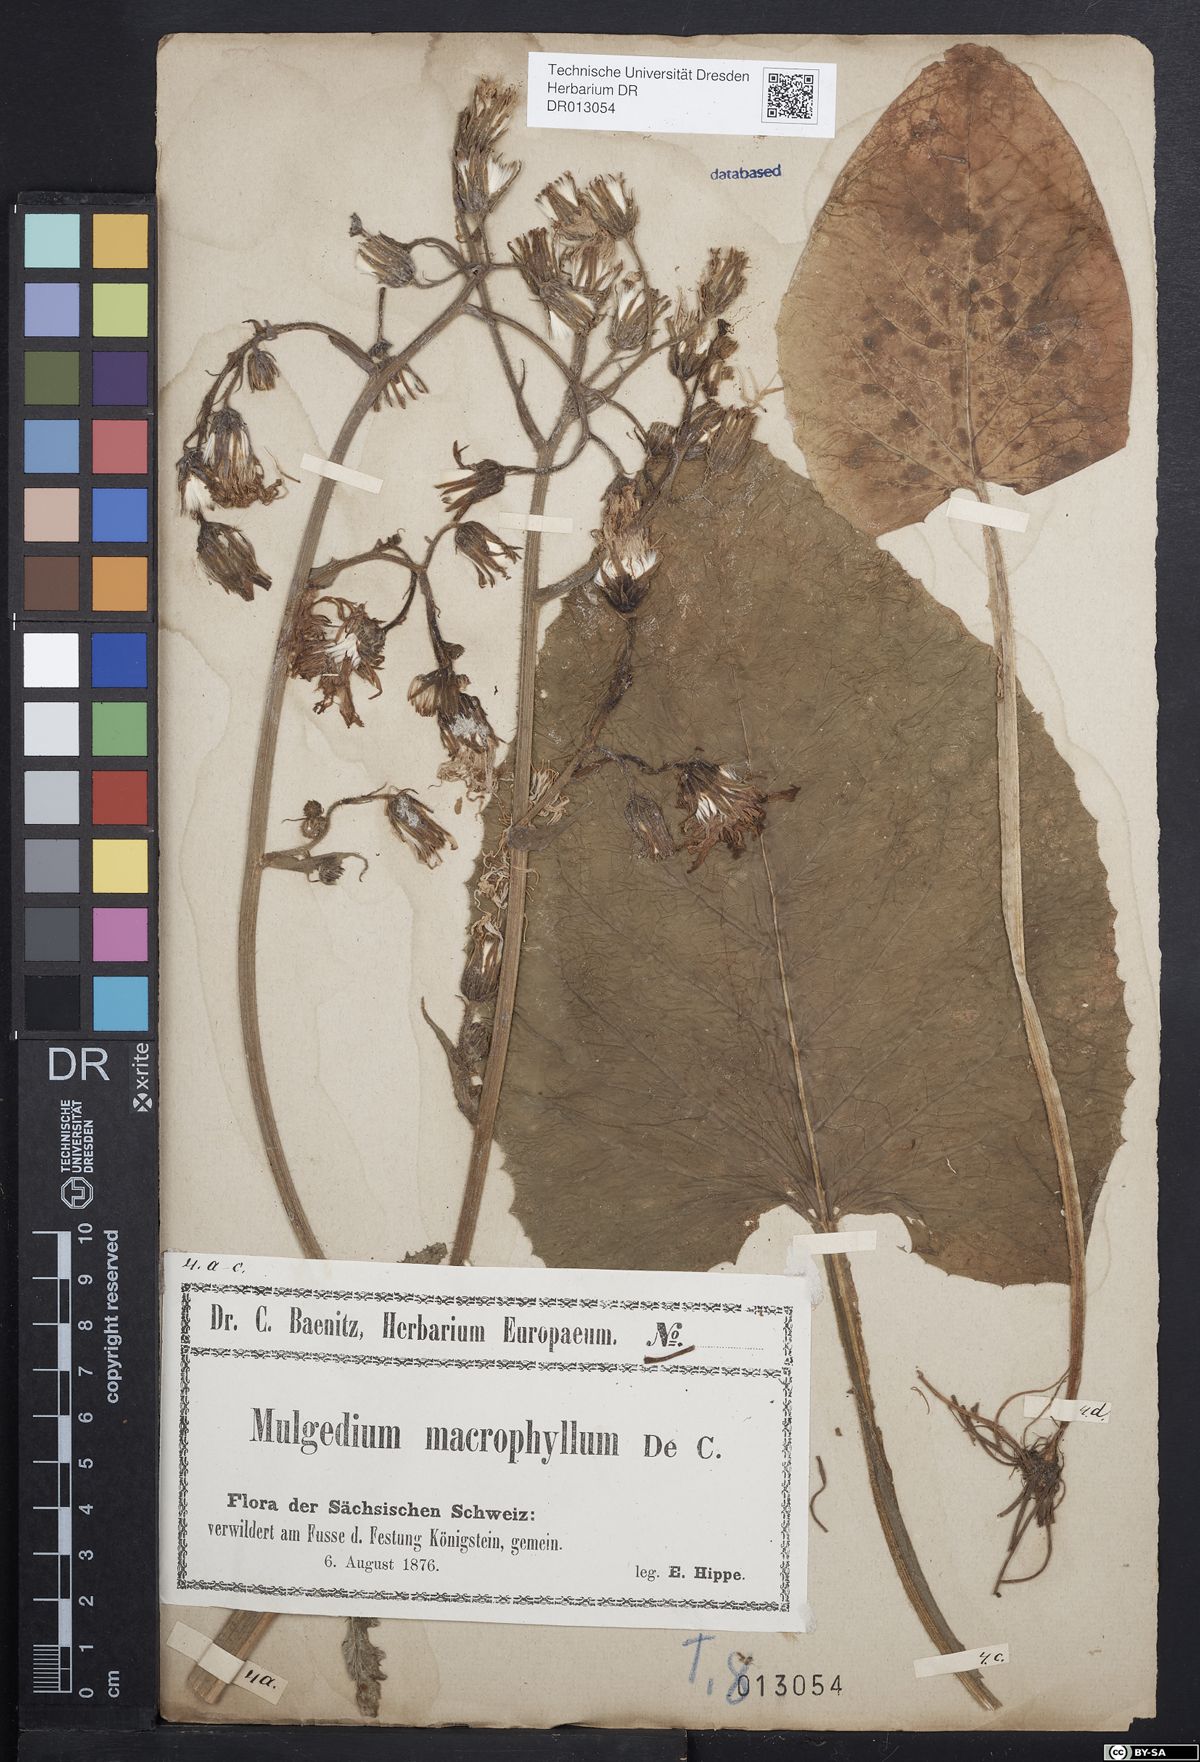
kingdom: Plantae
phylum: Tracheophyta
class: Magnoliopsida
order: Asterales
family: Asteraceae
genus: Lactuca
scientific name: Lactuca macrophylla
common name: Common blue-sow-thistle
